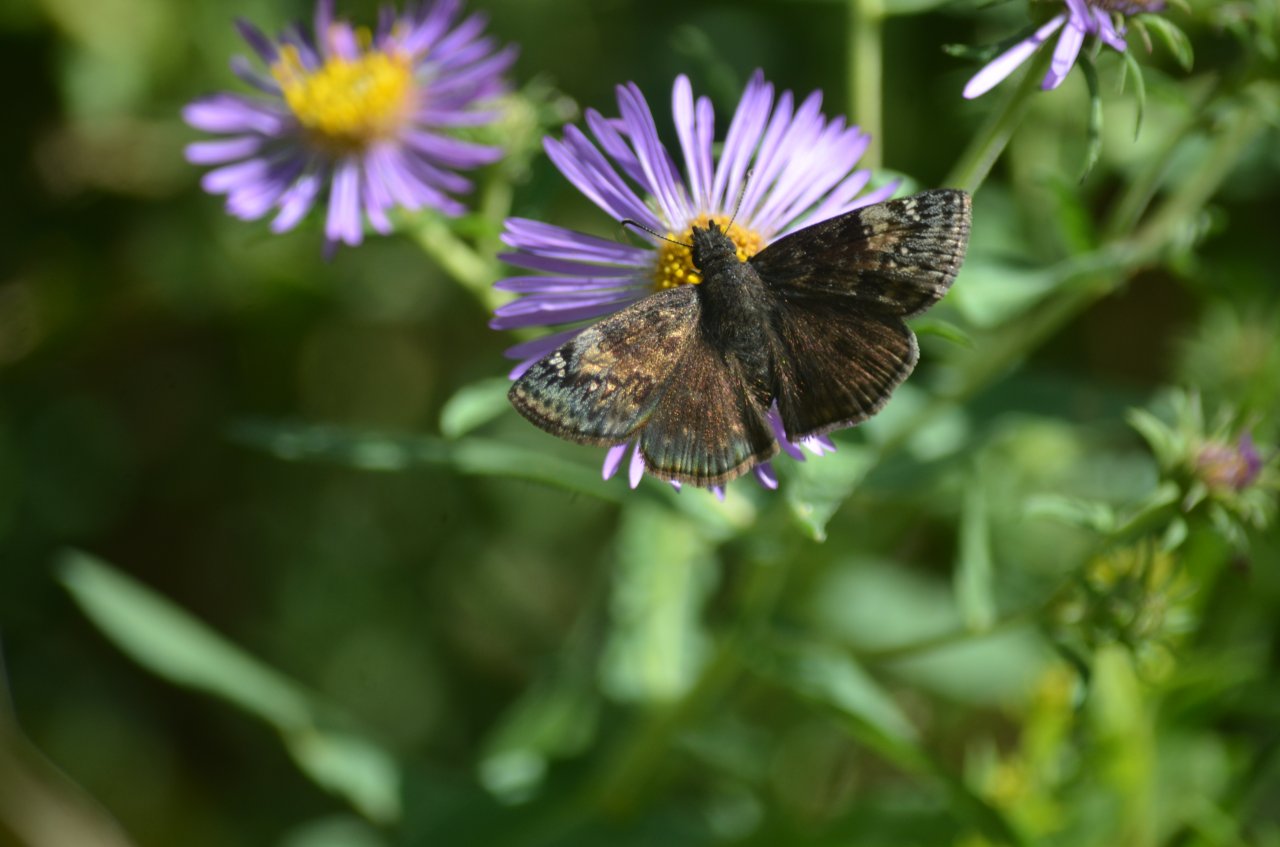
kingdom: Animalia
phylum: Arthropoda
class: Insecta
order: Lepidoptera
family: Hesperiidae
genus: Gesta
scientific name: Gesta
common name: Wild Indigo Duskywing
